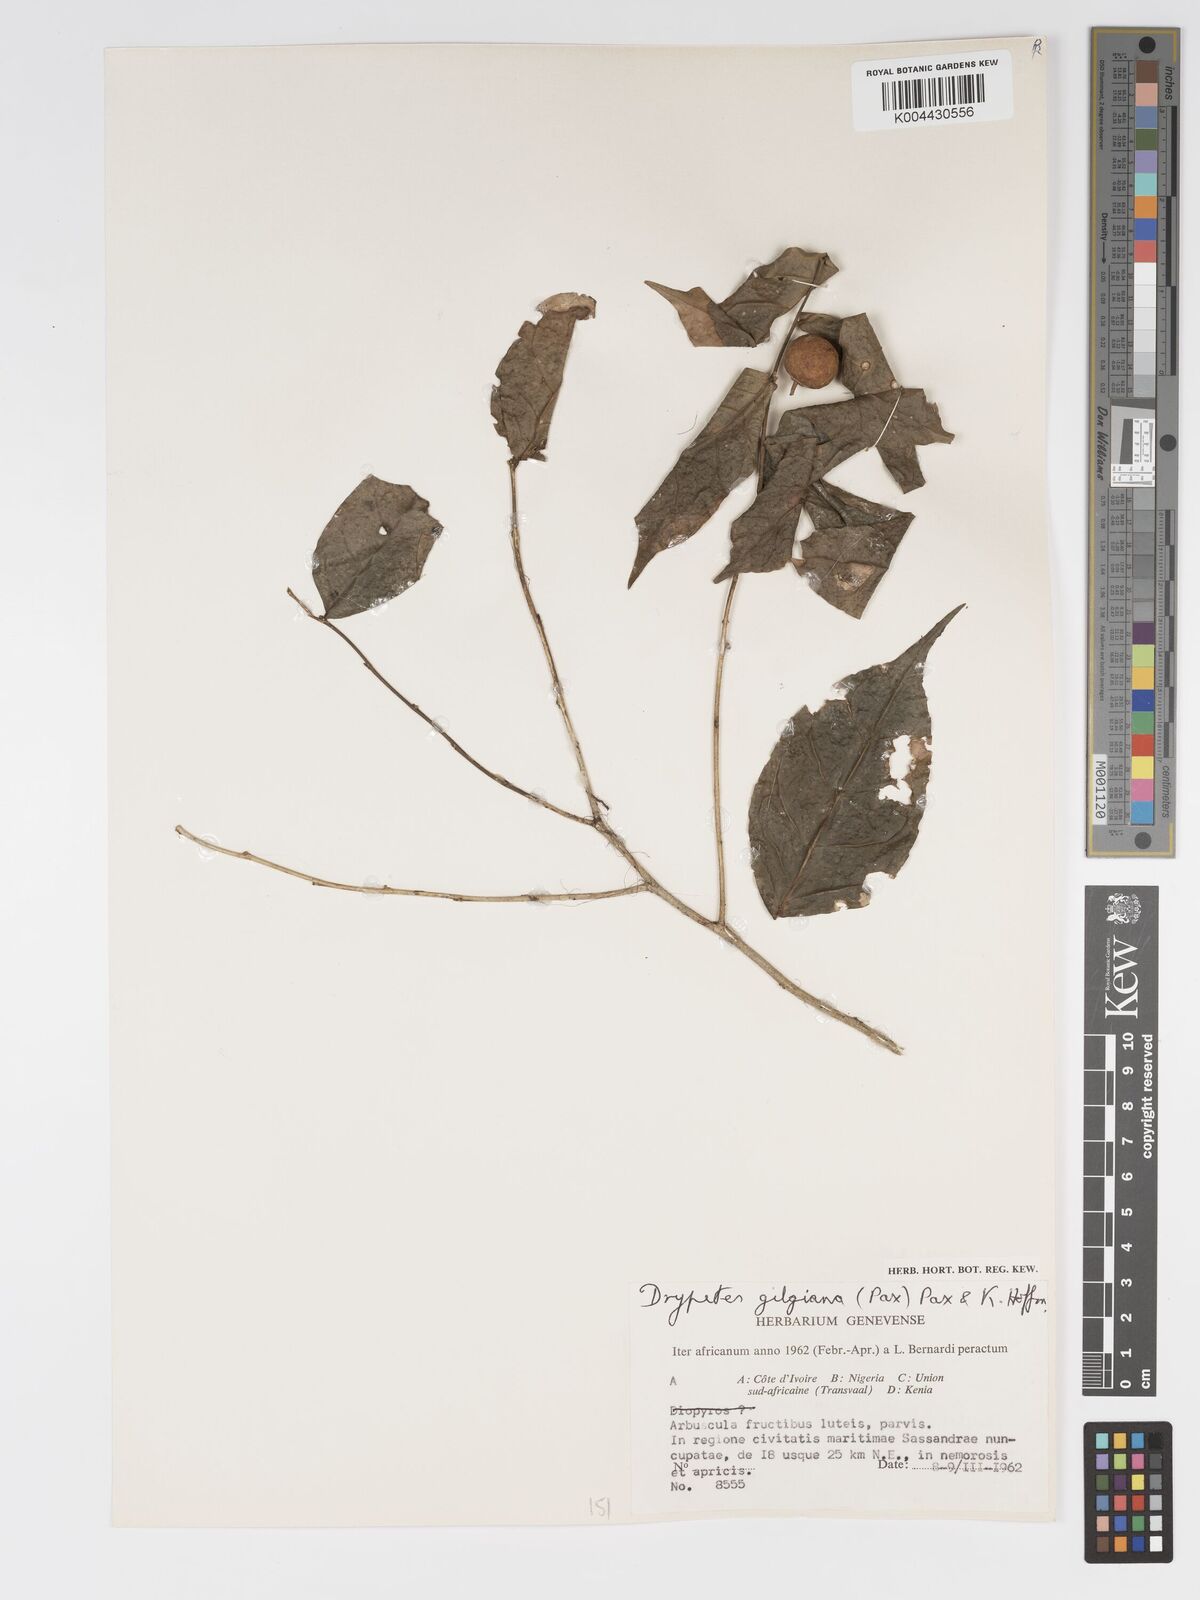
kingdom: Plantae
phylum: Tracheophyta
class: Magnoliopsida
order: Malpighiales
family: Putranjivaceae
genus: Drypetes
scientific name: Drypetes gilgiana
